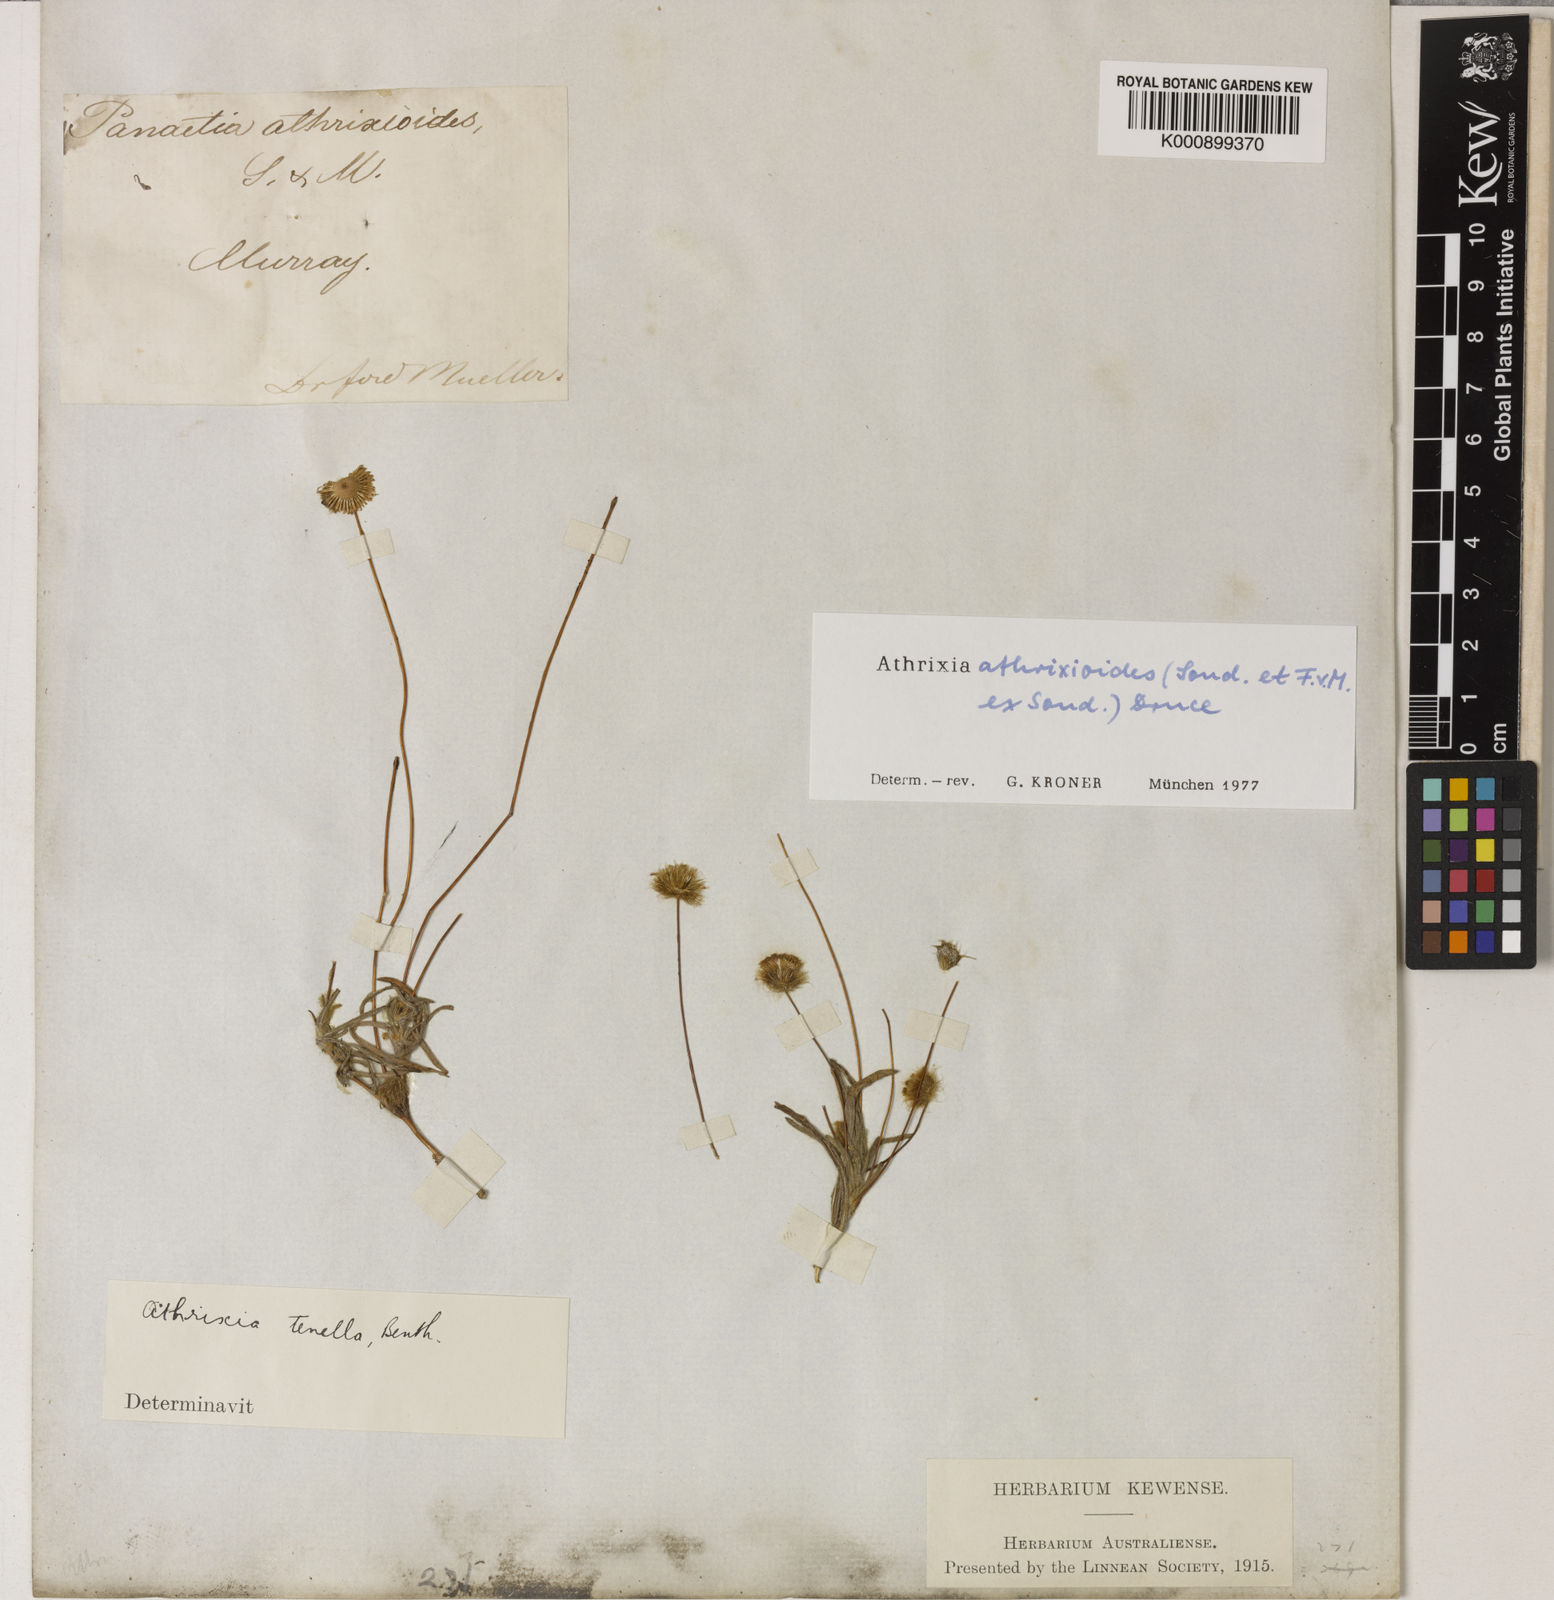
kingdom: Plantae
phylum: Tracheophyta
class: Magnoliopsida
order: Asterales
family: Asteraceae
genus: Asteridea
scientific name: Asteridea athrixioides
